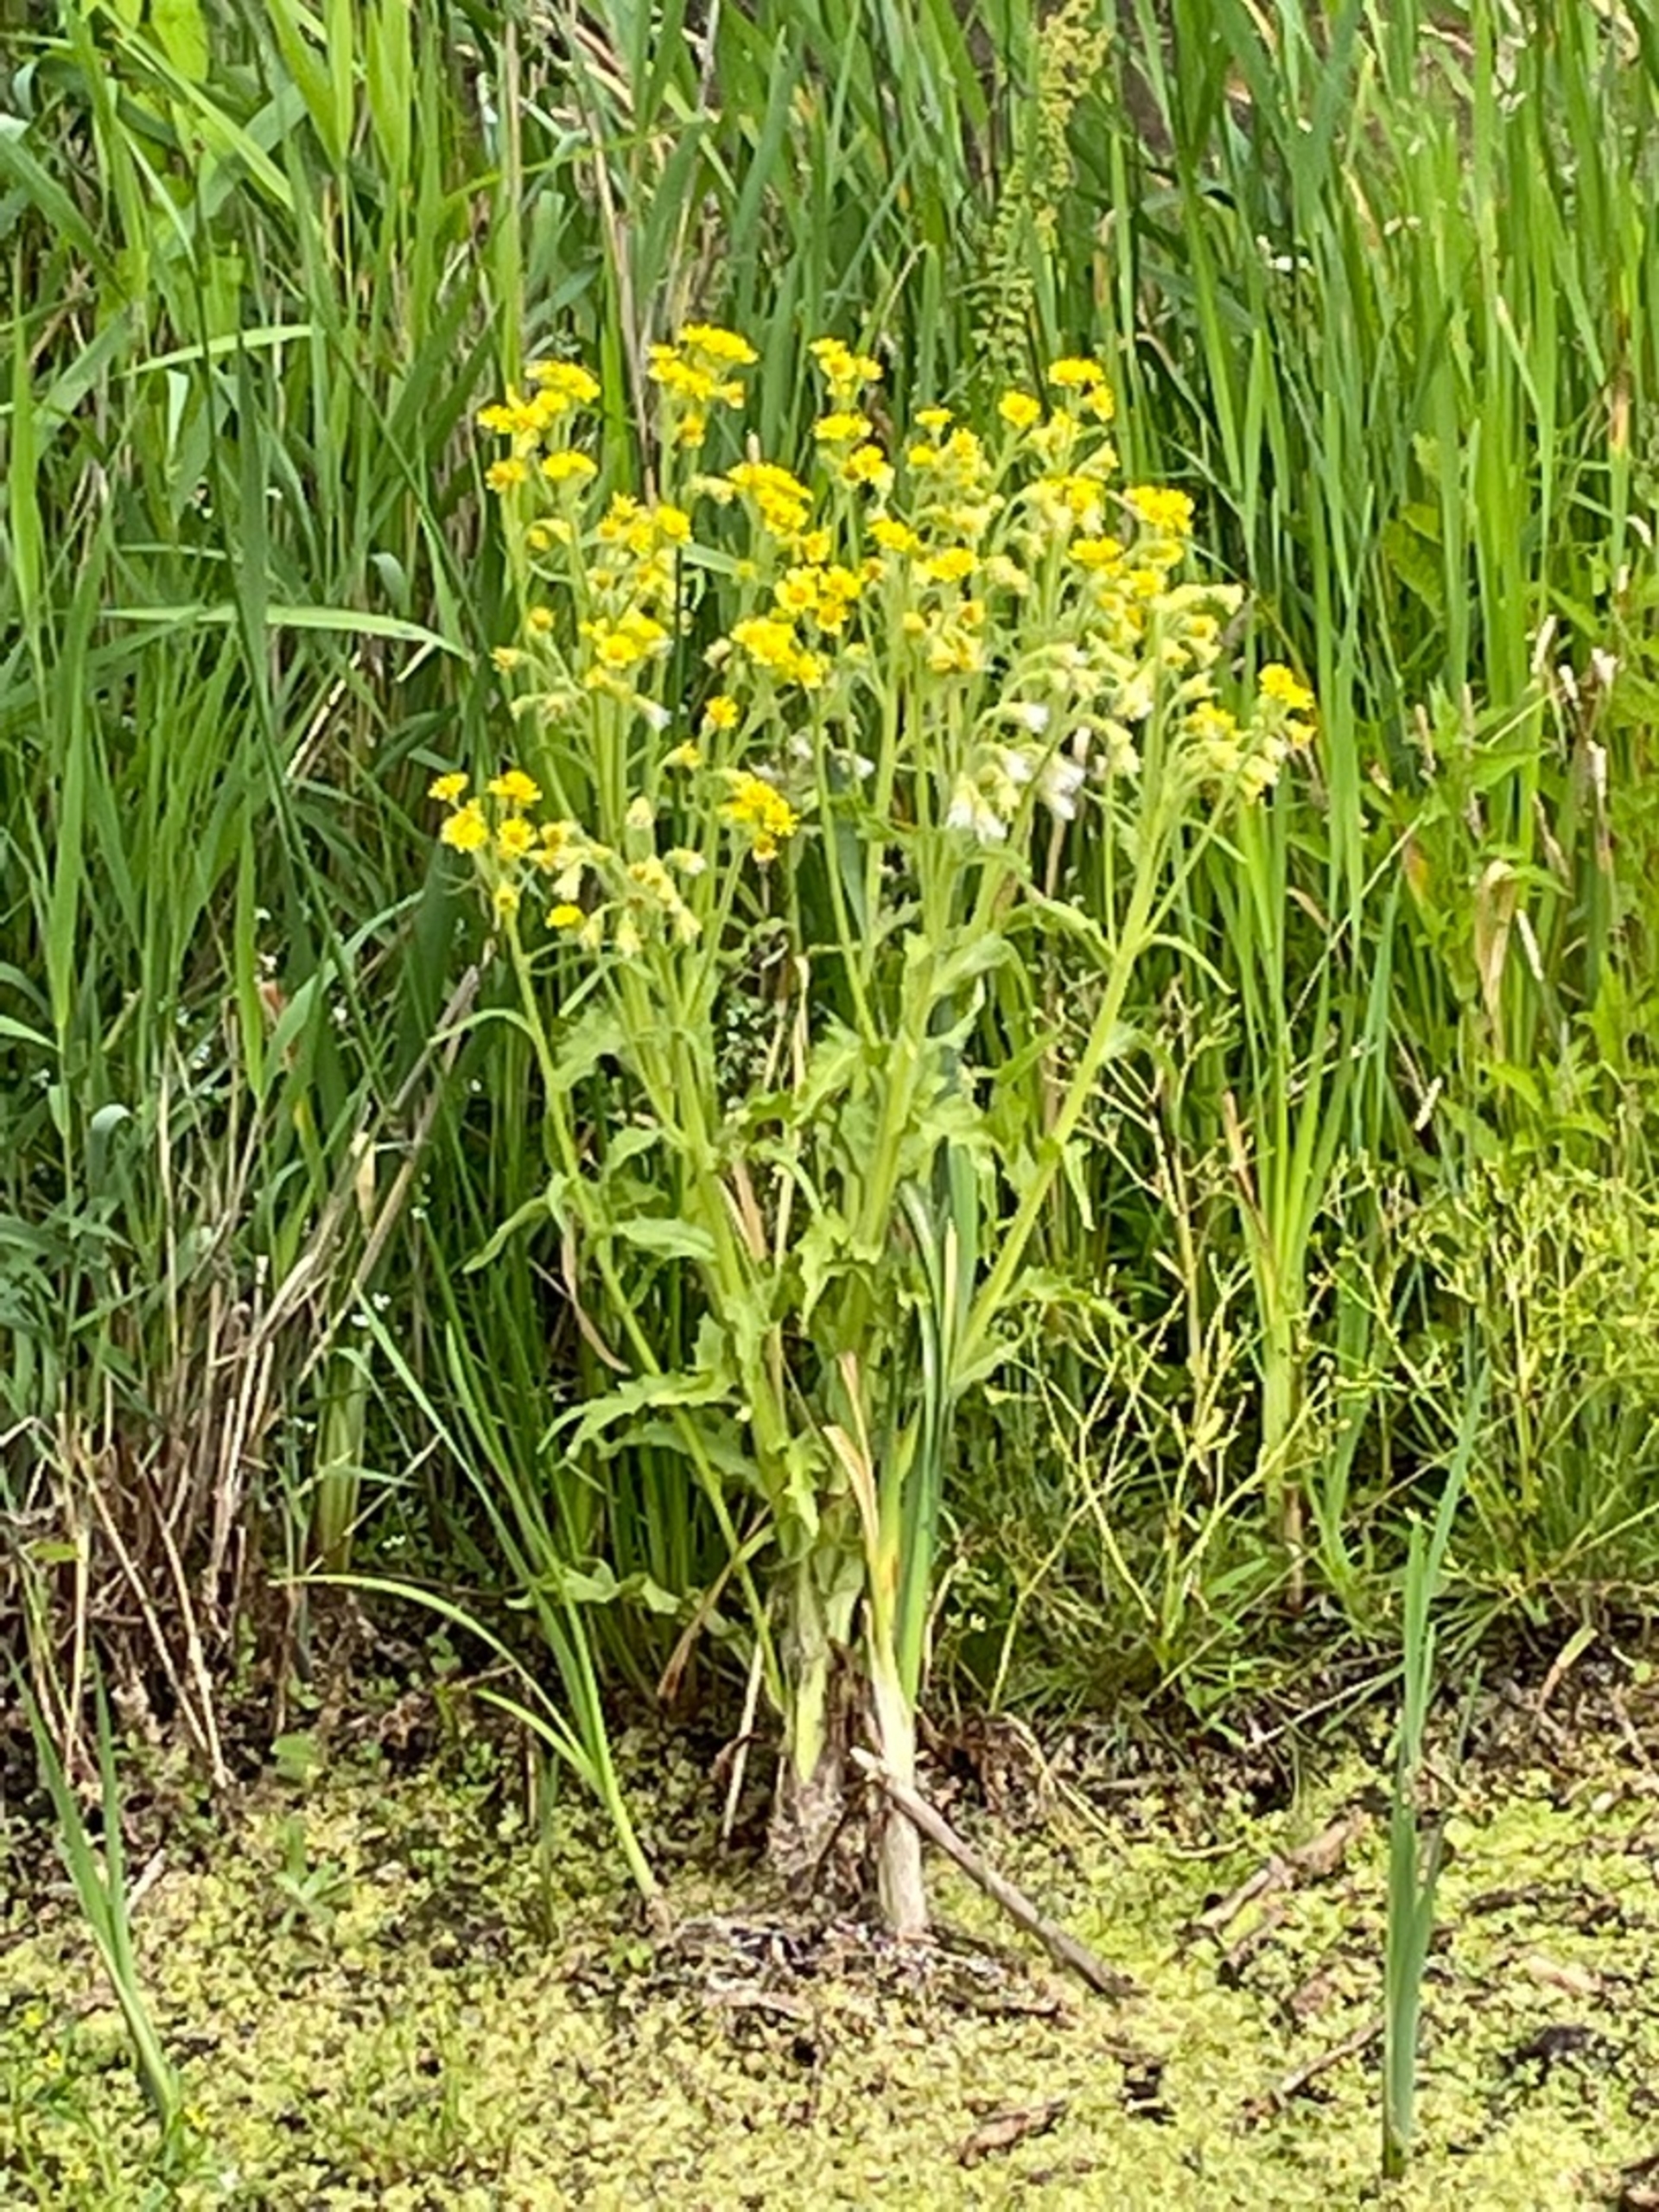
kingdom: Plantae
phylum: Tracheophyta
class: Magnoliopsida
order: Asterales
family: Asteraceae
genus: Tephroseris
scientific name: Tephroseris palustris
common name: Kær-fnokurt
